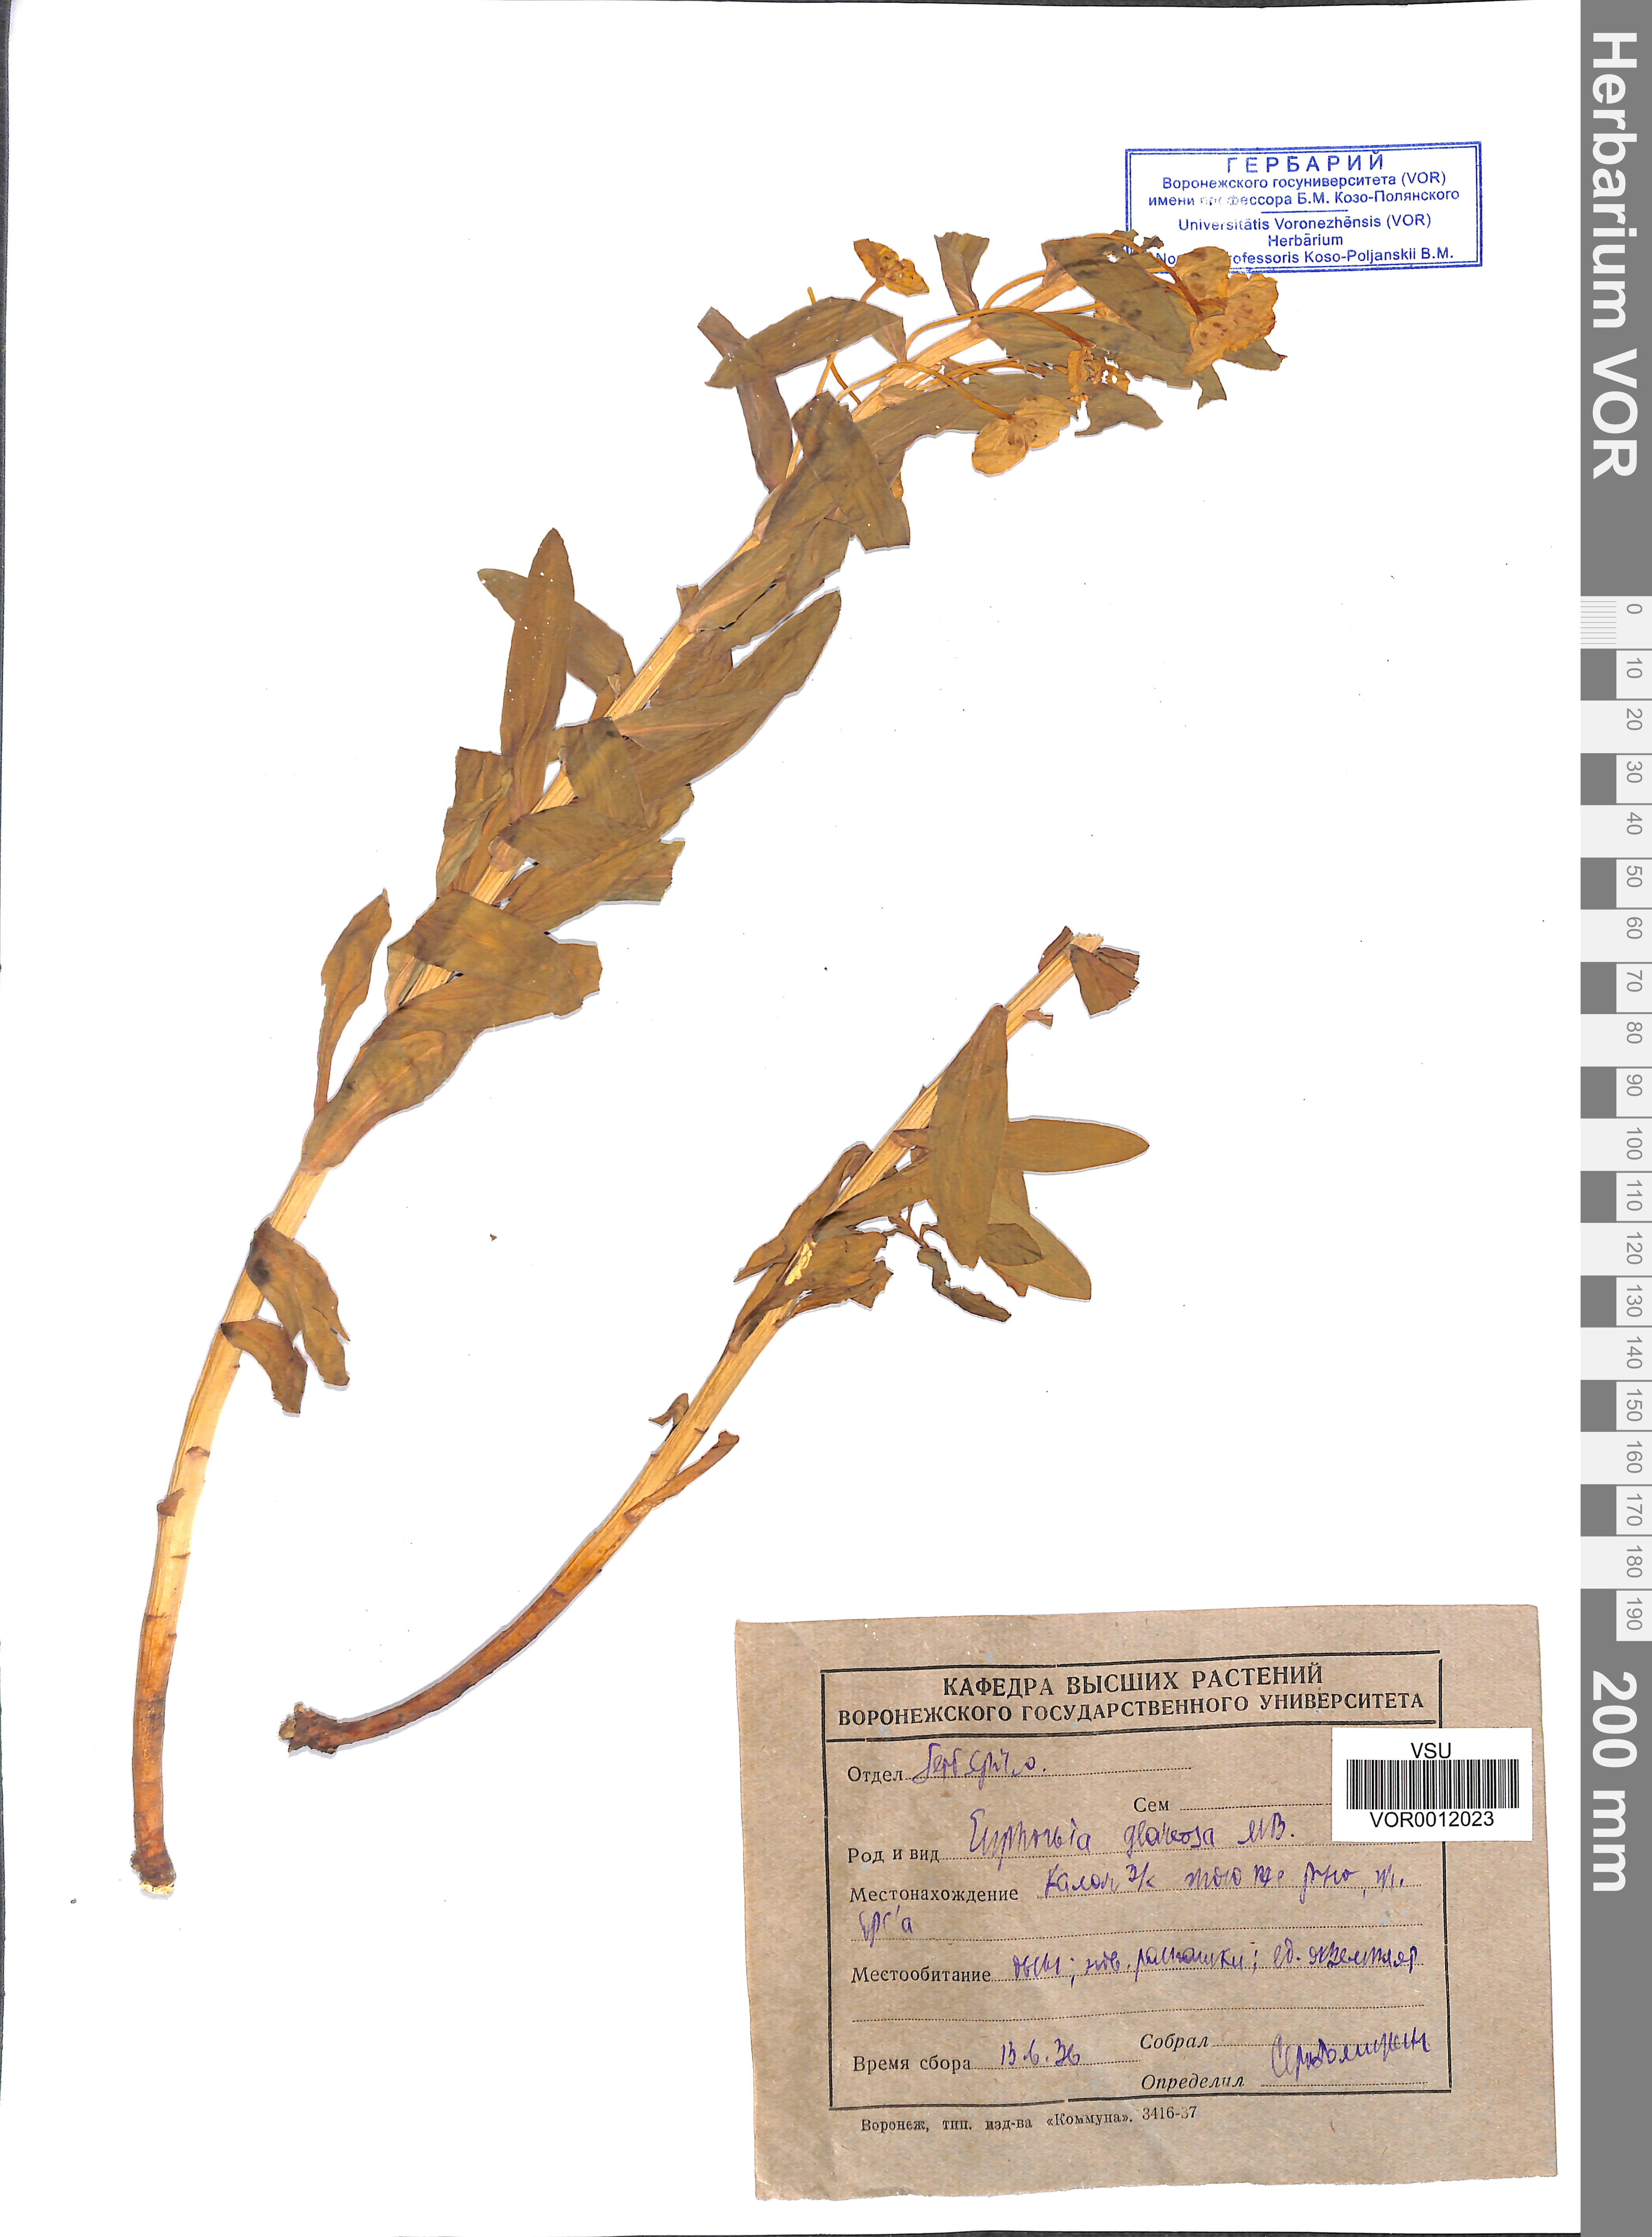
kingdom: Plantae
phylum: Tracheophyta
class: Magnoliopsida
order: Malpighiales
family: Euphorbiaceae
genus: Euphorbia
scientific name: Euphorbia stepposa
